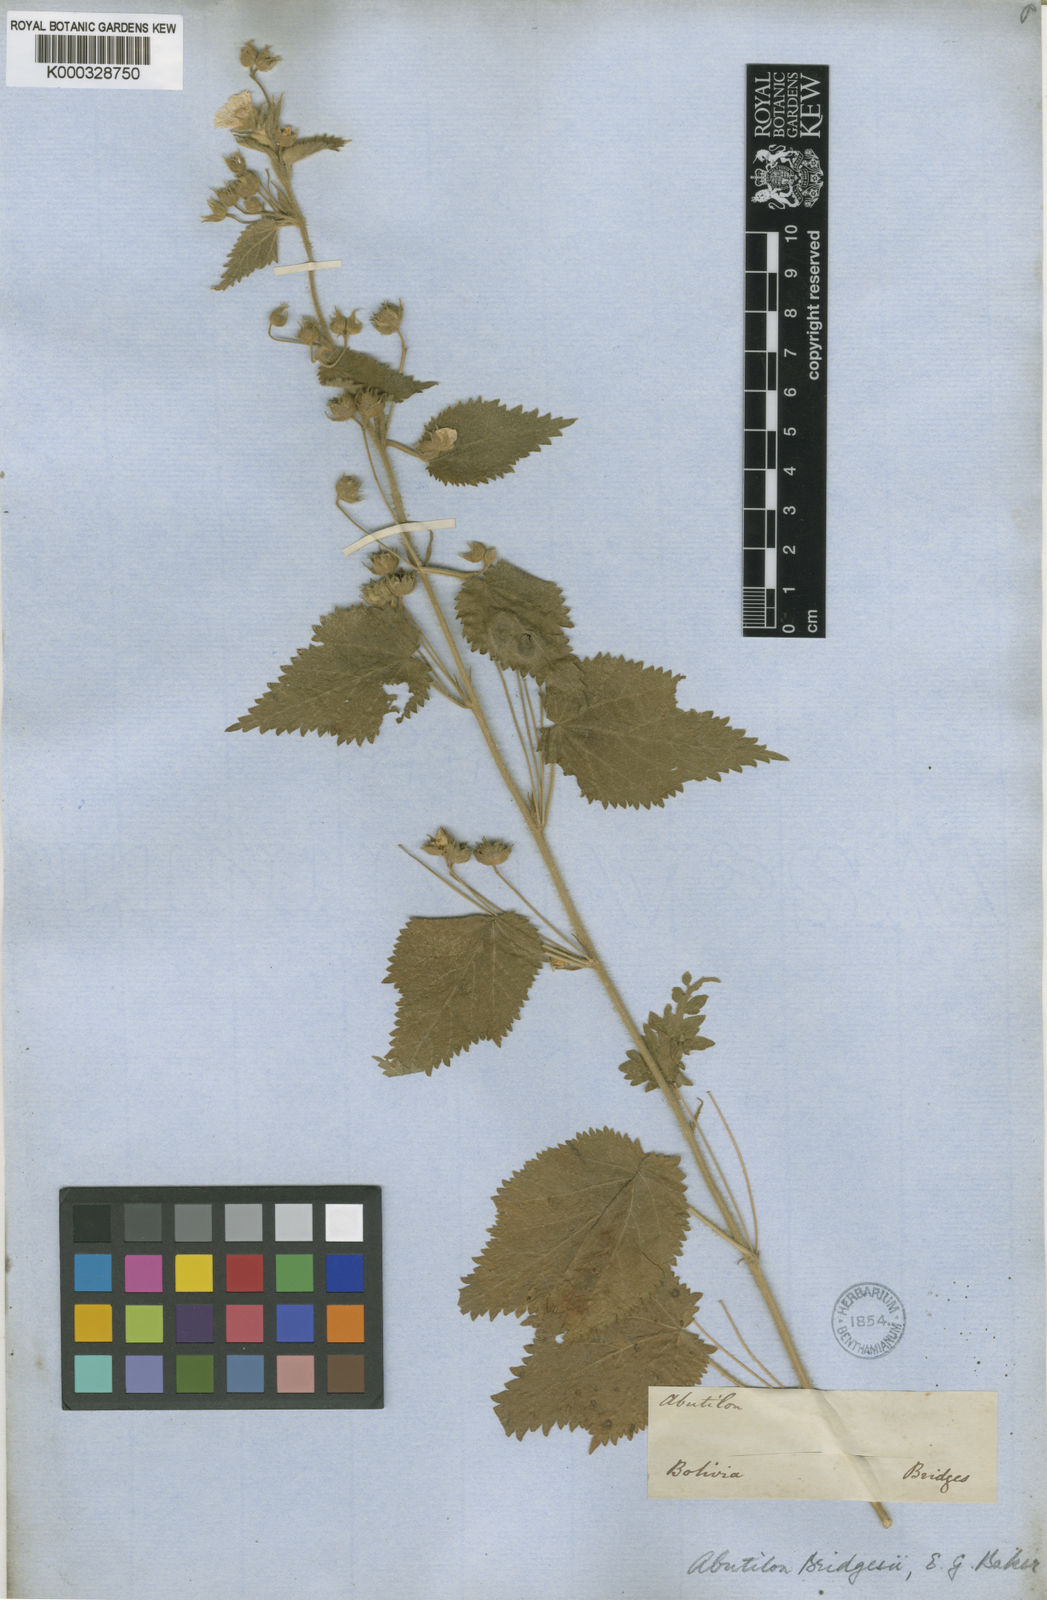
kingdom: Plantae
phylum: Tracheophyta
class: Magnoliopsida
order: Malvales
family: Malvaceae
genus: Pseudabutilon
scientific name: Pseudabutilon virgatum
